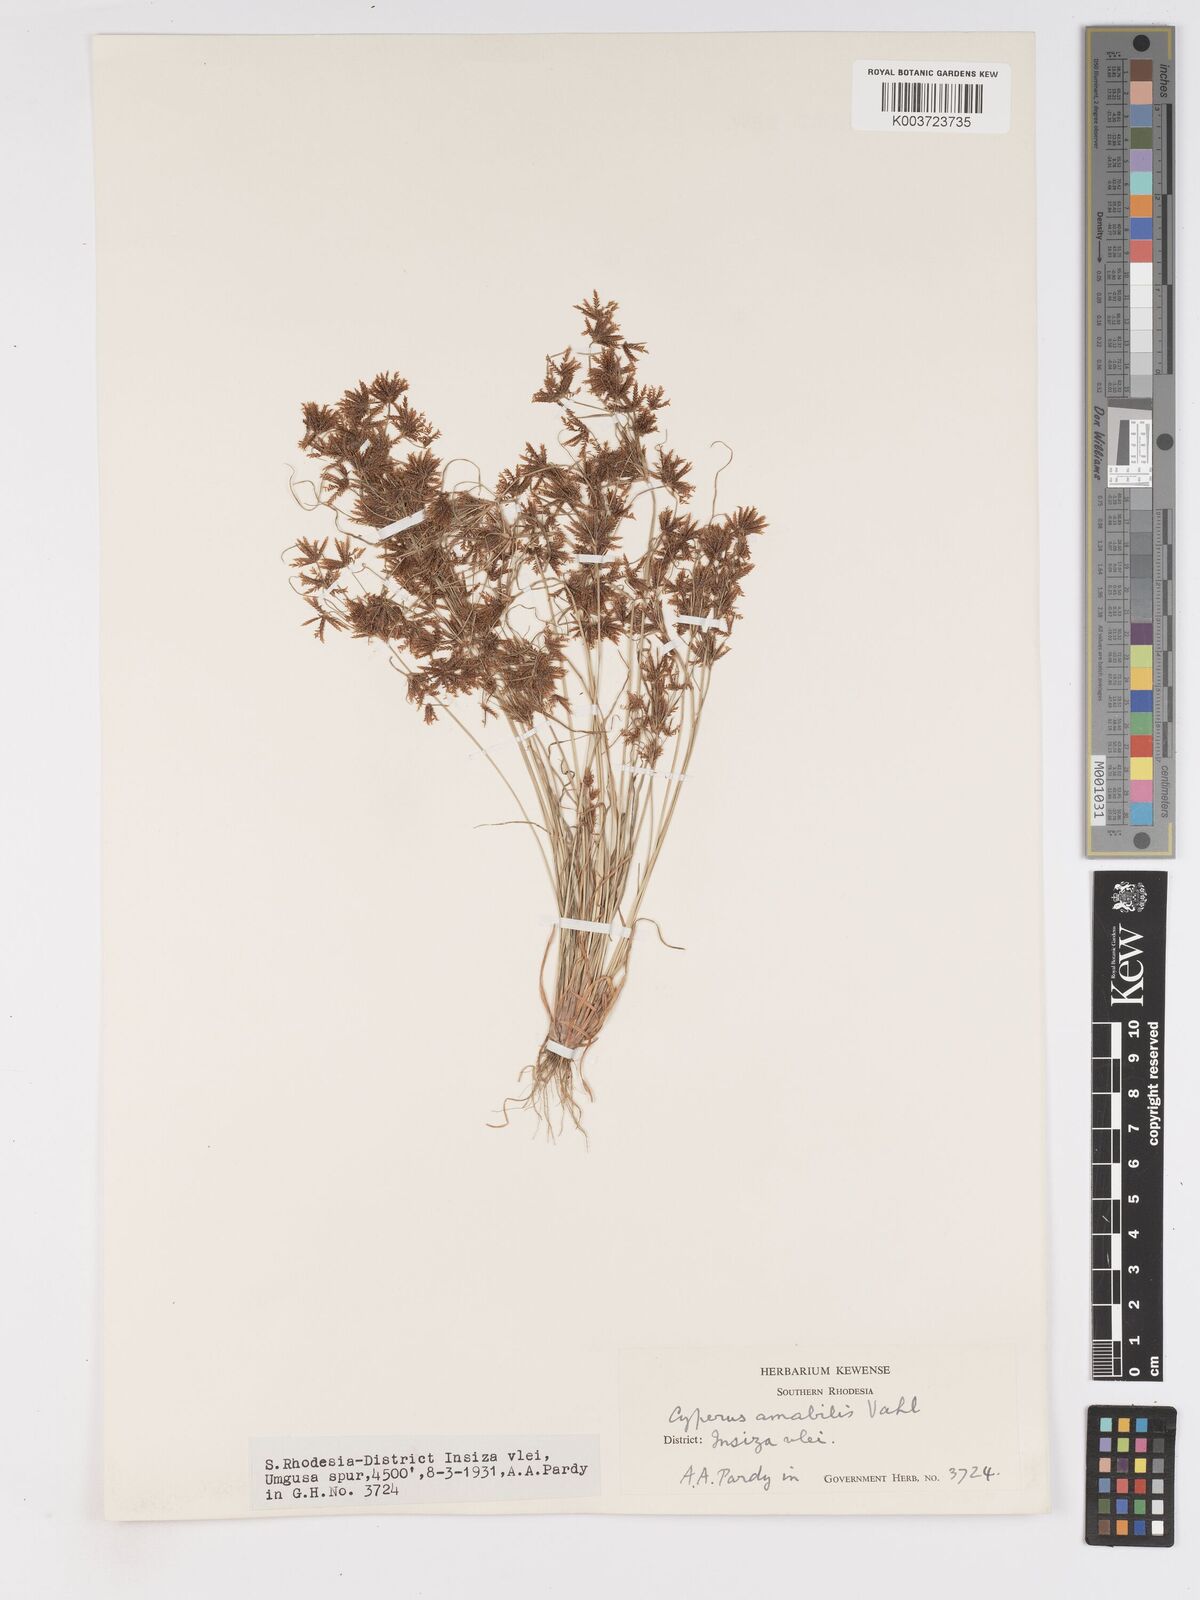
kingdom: Plantae
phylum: Tracheophyta
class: Liliopsida
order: Poales
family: Cyperaceae
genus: Cyperus
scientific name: Cyperus amabilis
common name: Foothill flat sedge
